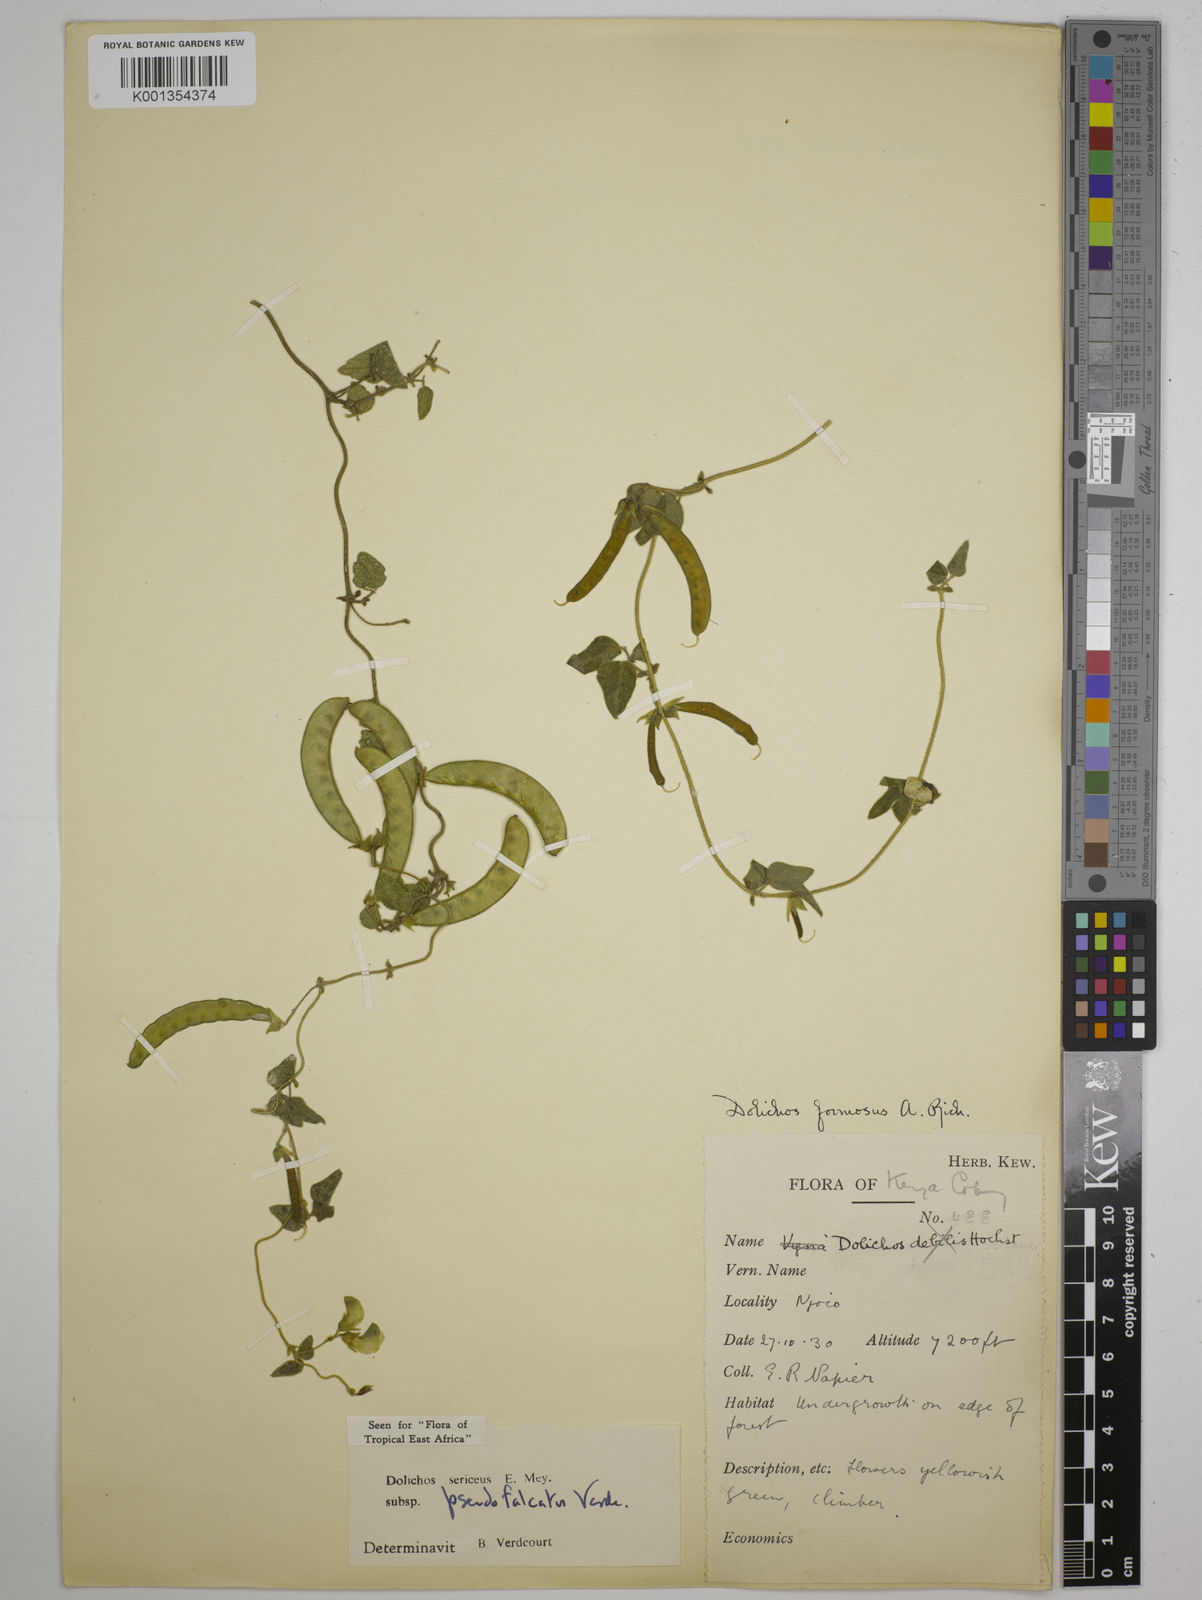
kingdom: Plantae
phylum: Tracheophyta
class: Magnoliopsida
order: Fabales
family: Fabaceae
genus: Dolichos
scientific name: Dolichos
